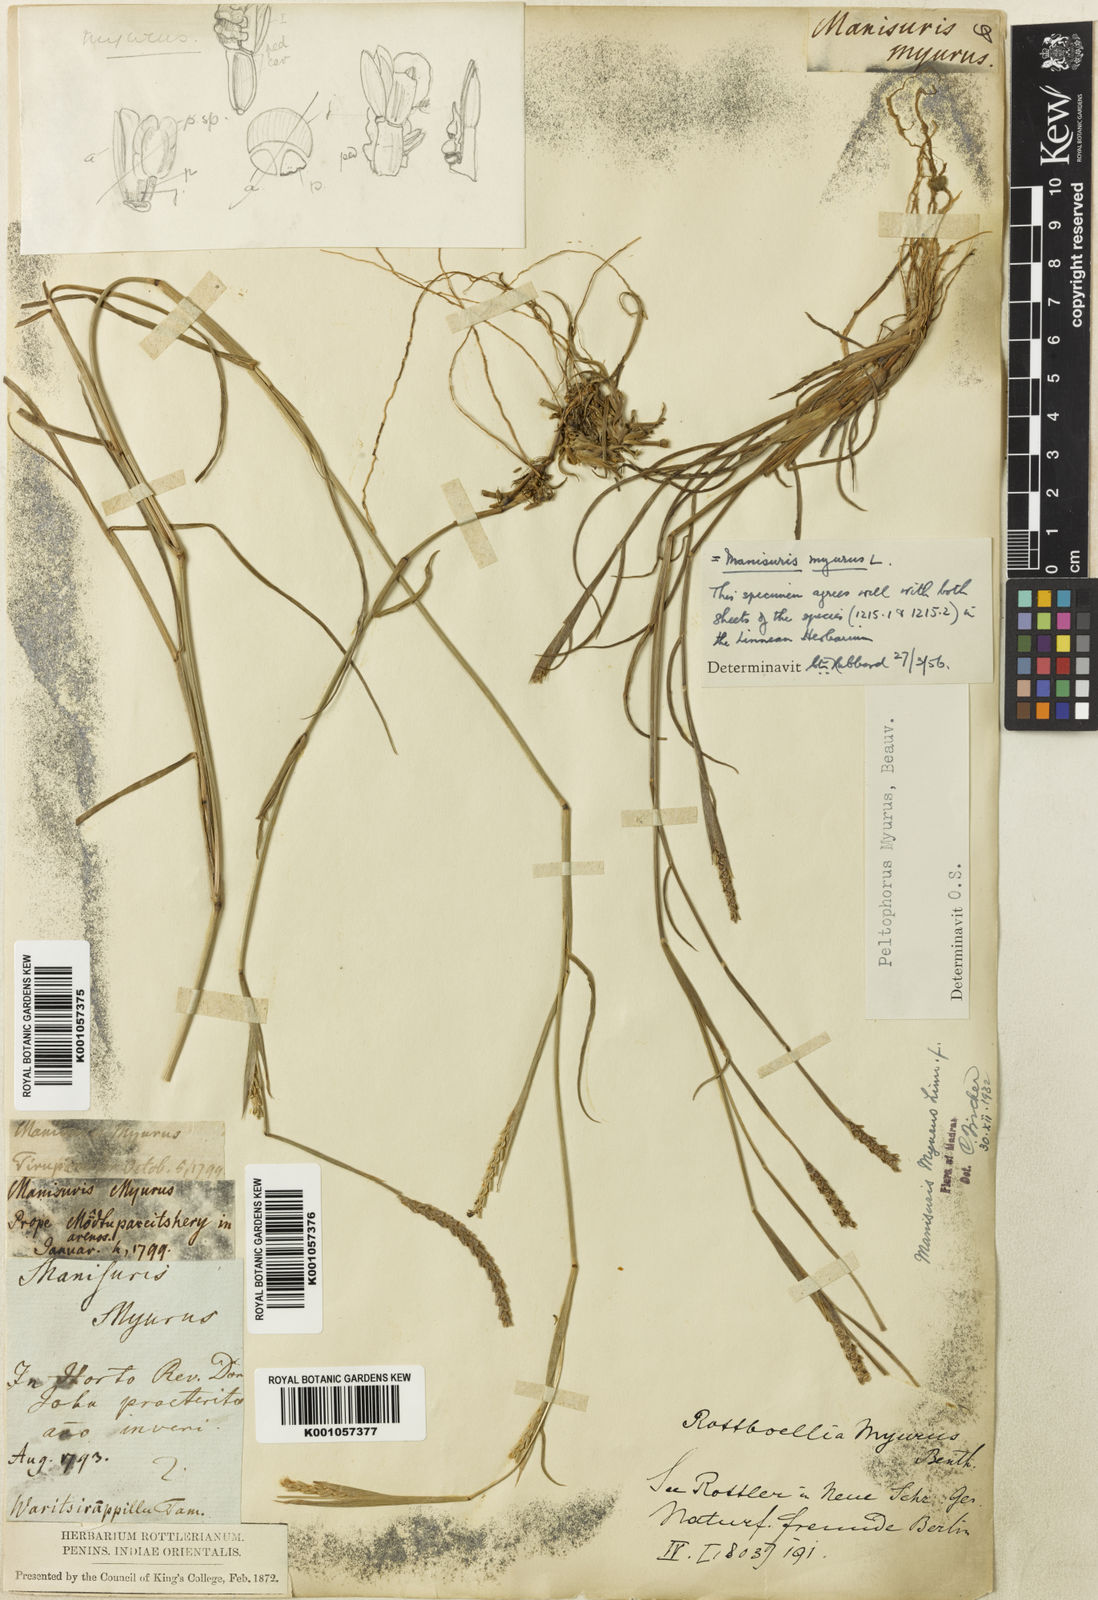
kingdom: Plantae
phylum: Tracheophyta
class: Liliopsida
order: Poales
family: Poaceae
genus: Manisuris
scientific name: Manisuris myurus
